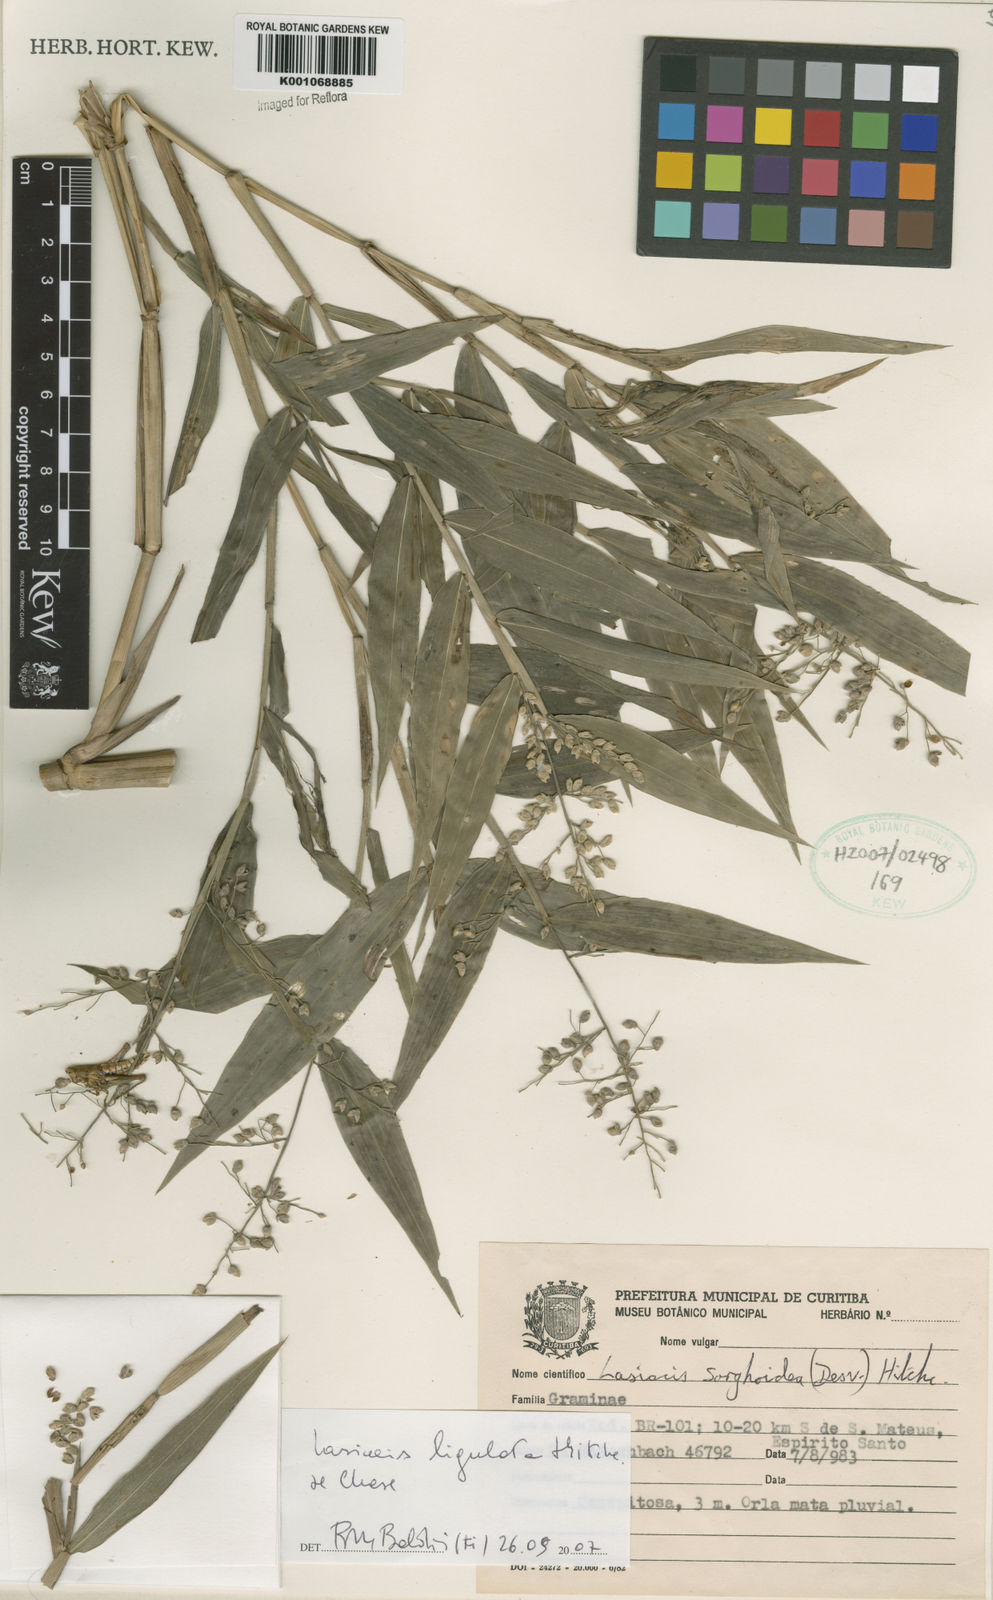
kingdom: Plantae
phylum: Tracheophyta
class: Liliopsida
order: Poales
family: Poaceae
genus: Lasiacis
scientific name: Lasiacis ligulata
